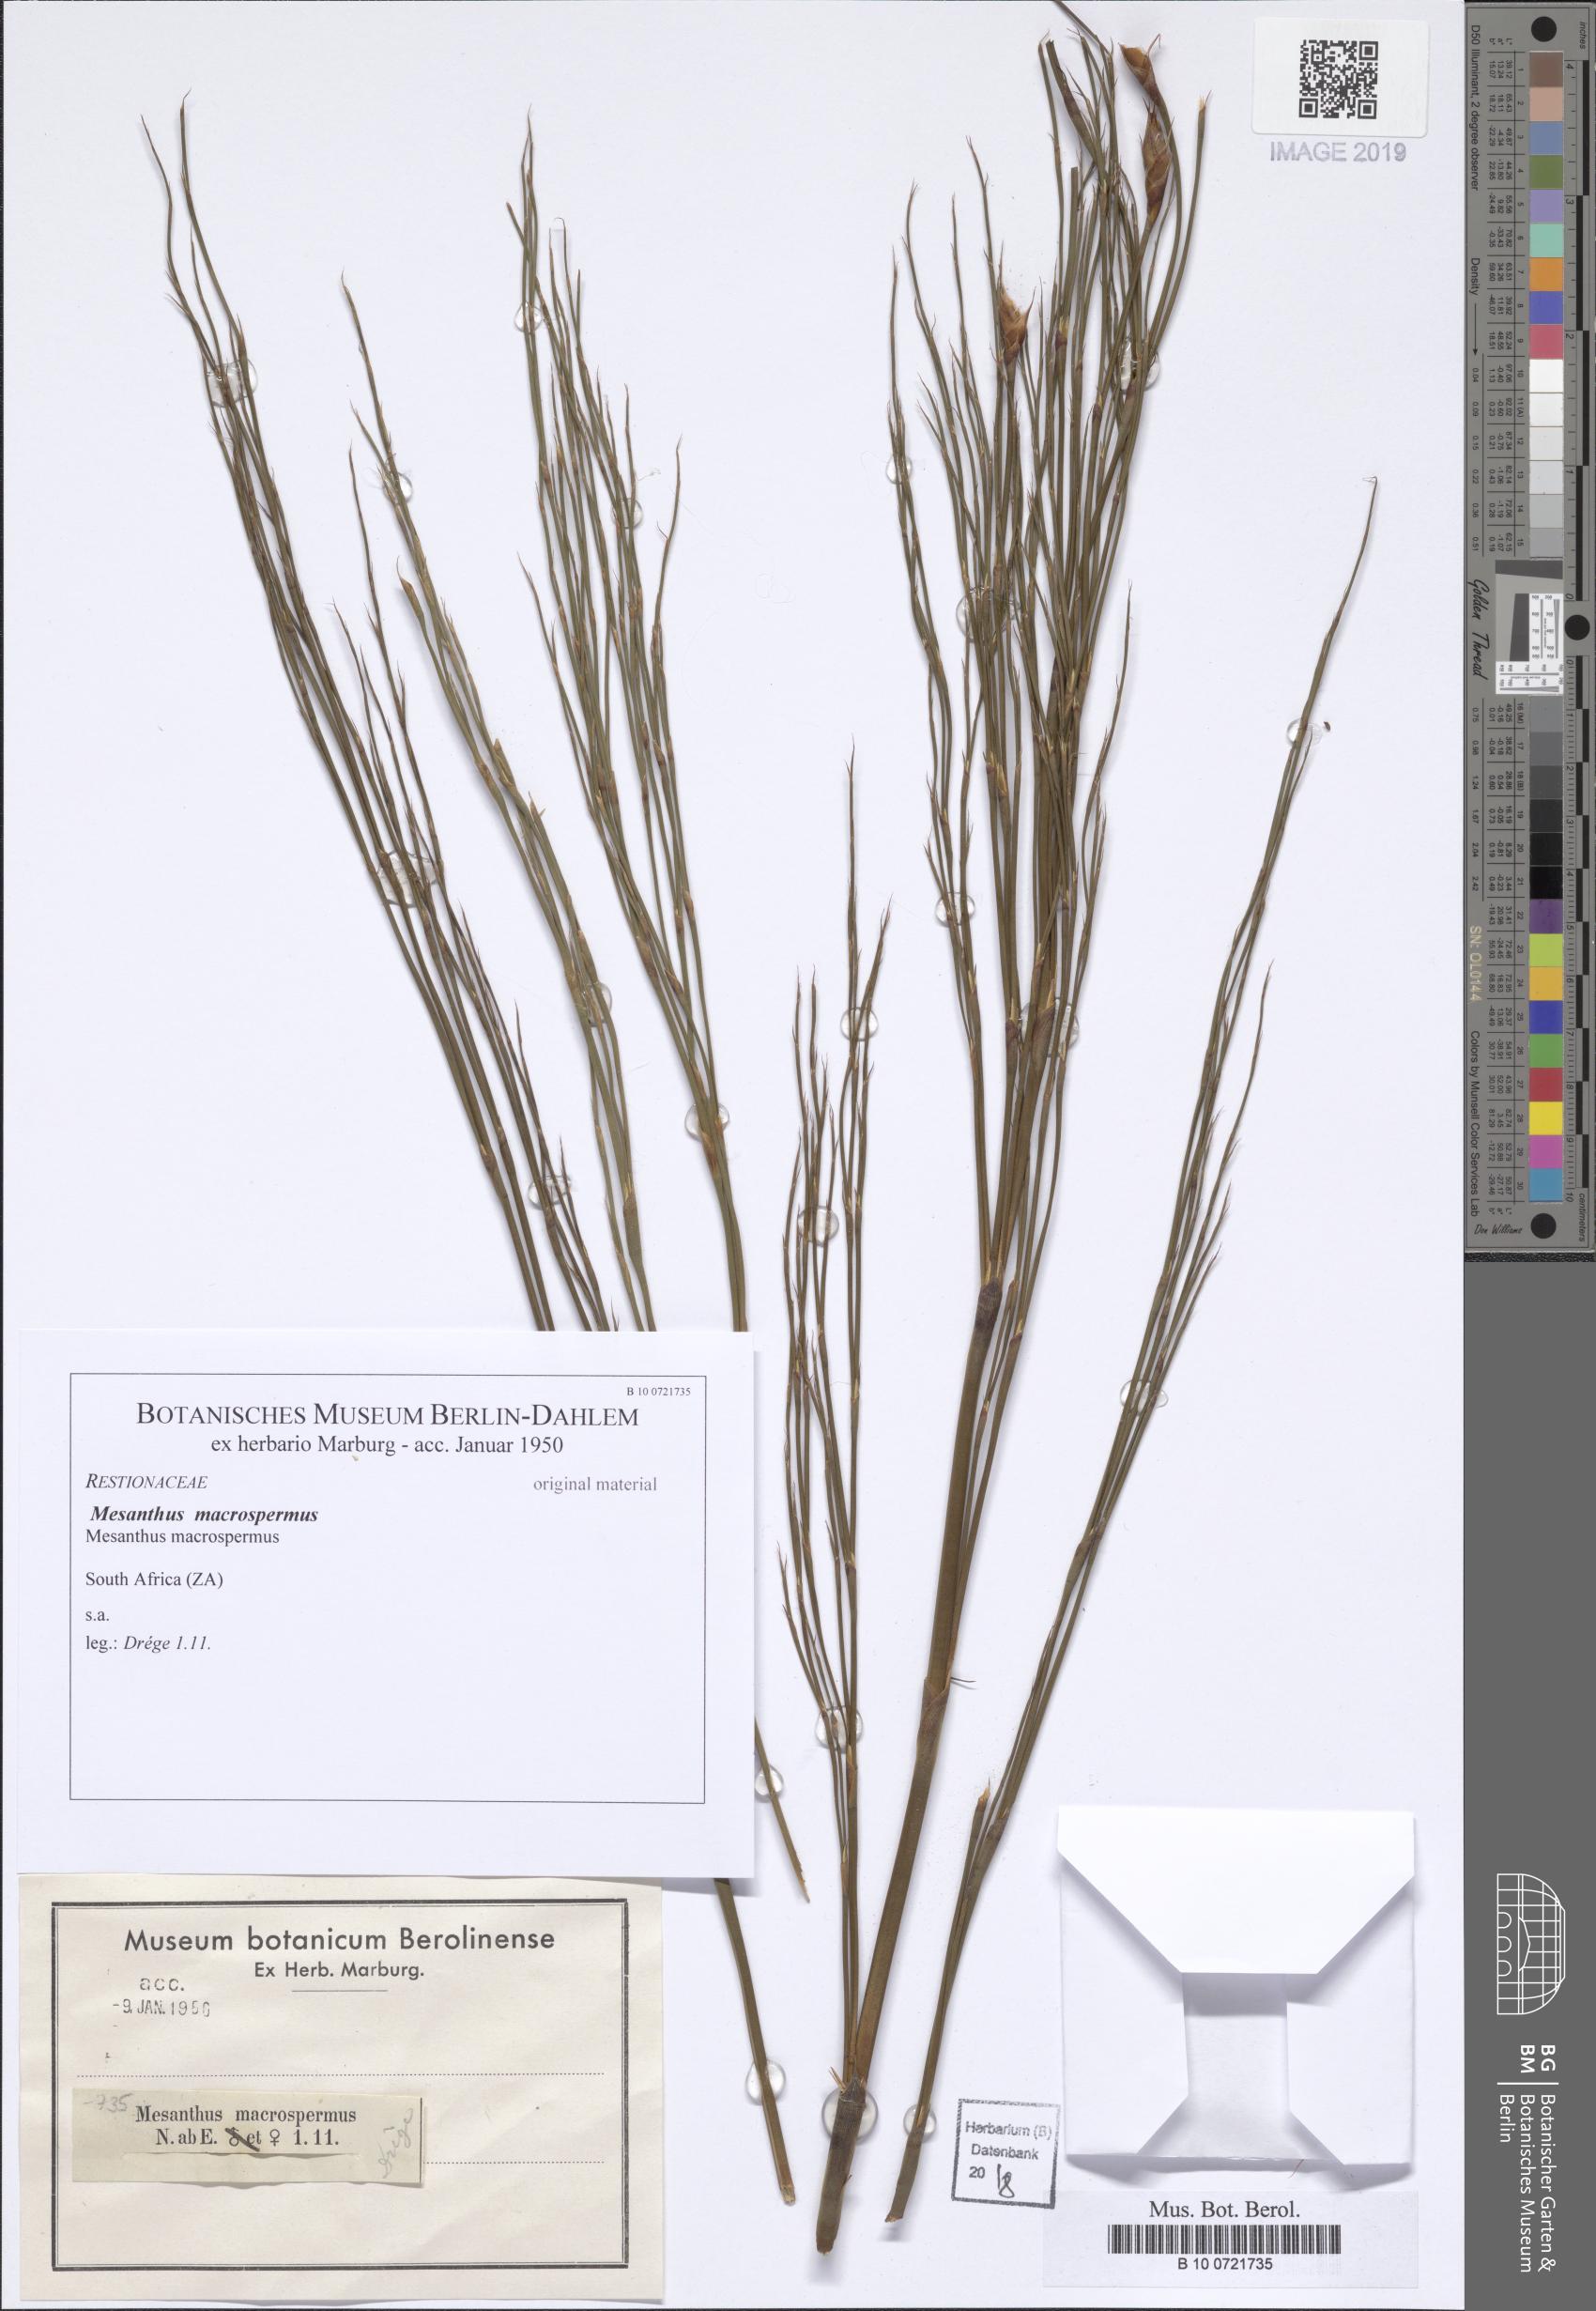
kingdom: Plantae
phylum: Tracheophyta
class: Liliopsida
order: Poales
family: Restionaceae
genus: Cannomois
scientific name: Cannomois
